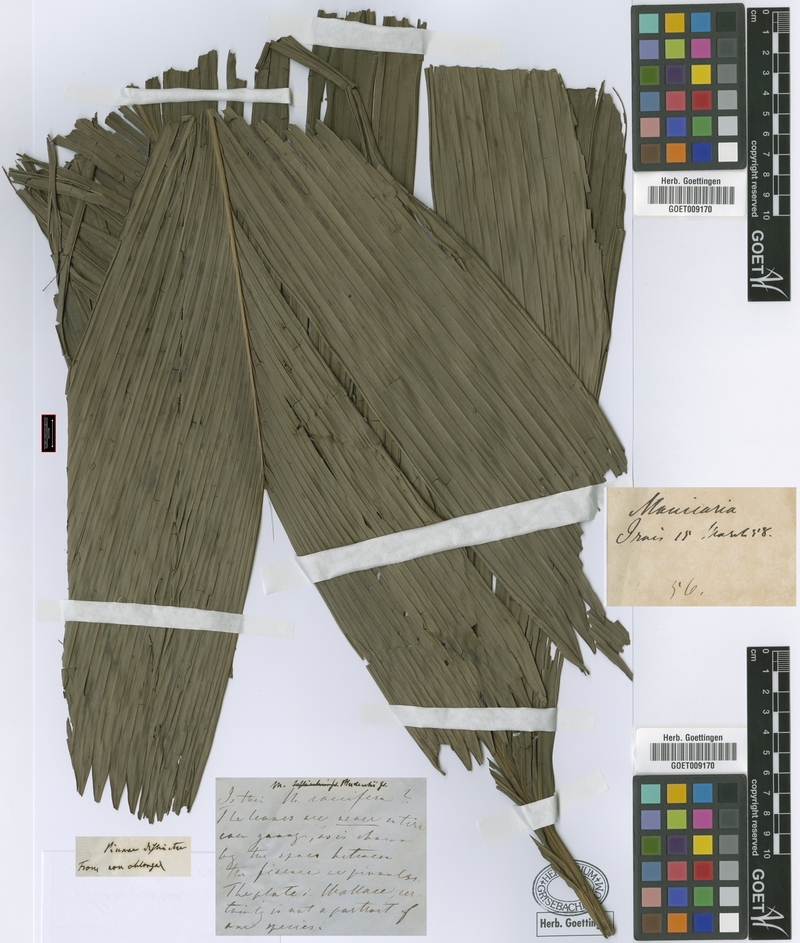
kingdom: Plantae
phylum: Tracheophyta
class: Liliopsida
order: Arecales
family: Arecaceae
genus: Manicaria
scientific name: Manicaria saccifera
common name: Sea coconut
